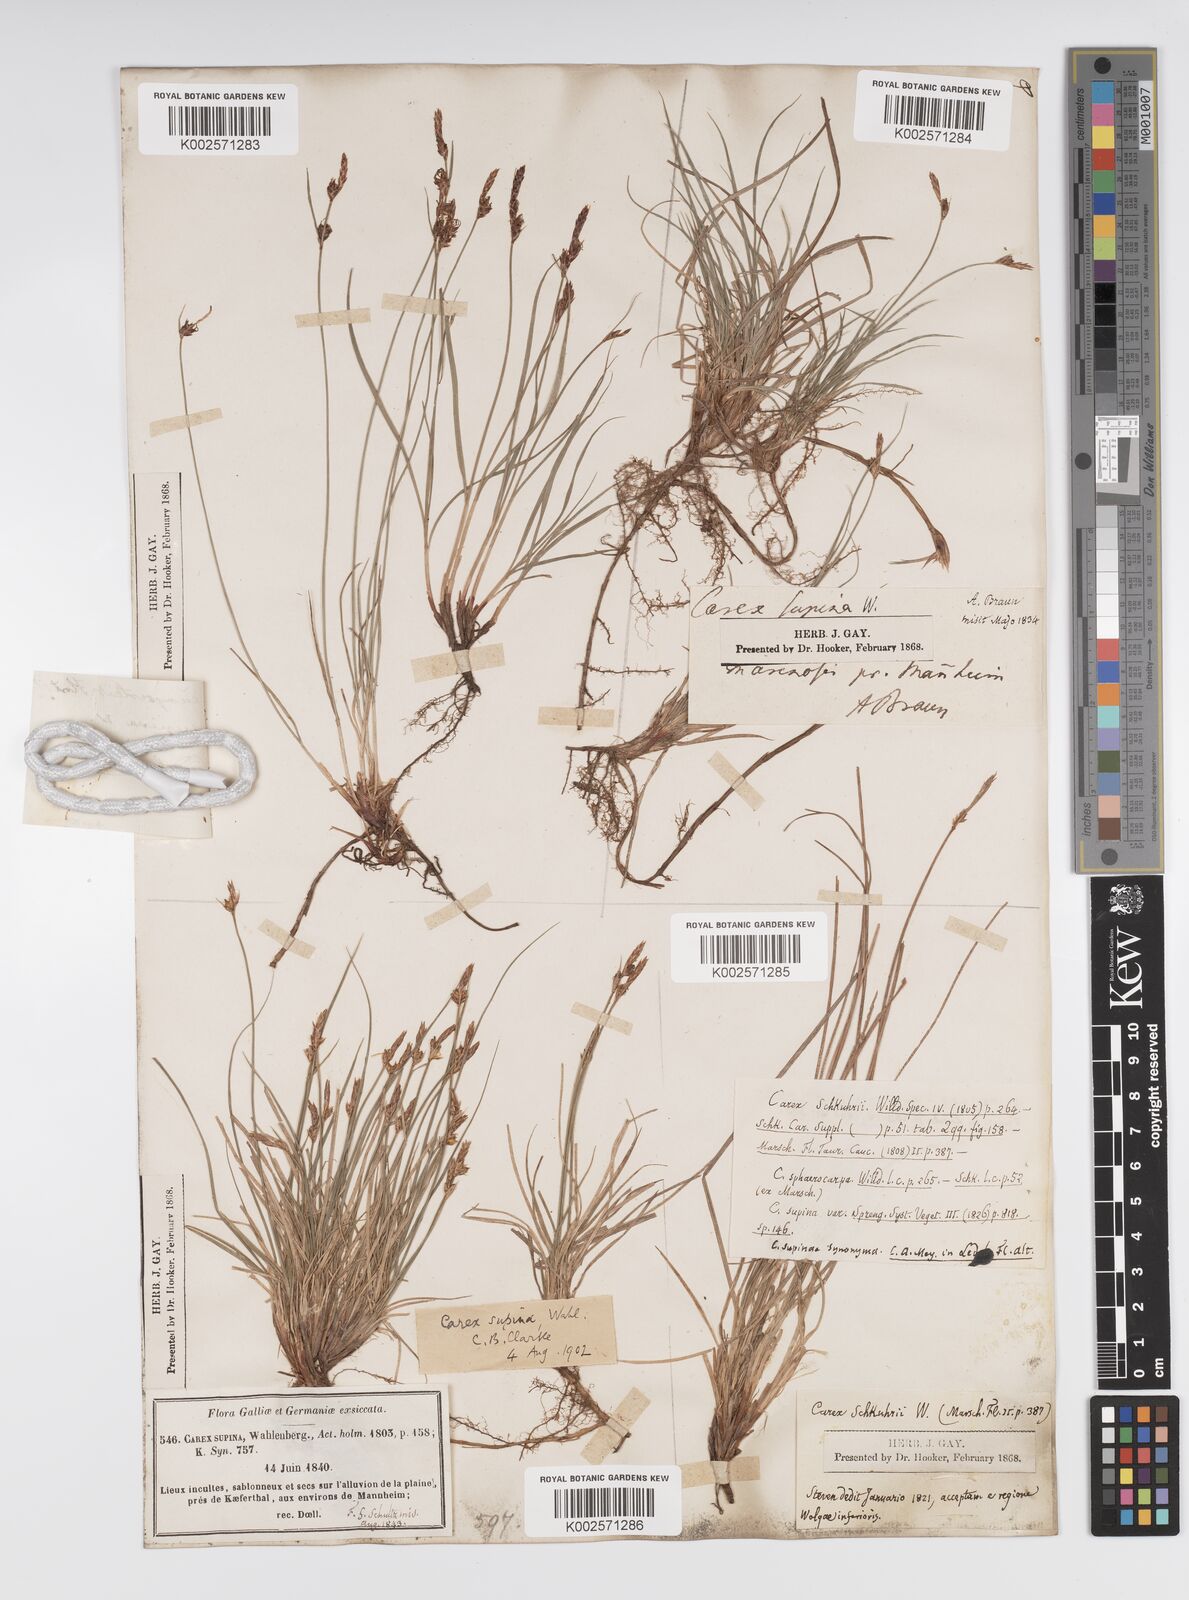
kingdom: Plantae
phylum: Tracheophyta
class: Liliopsida
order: Poales
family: Cyperaceae
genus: Carex
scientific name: Carex supina
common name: Lying-back sedge
